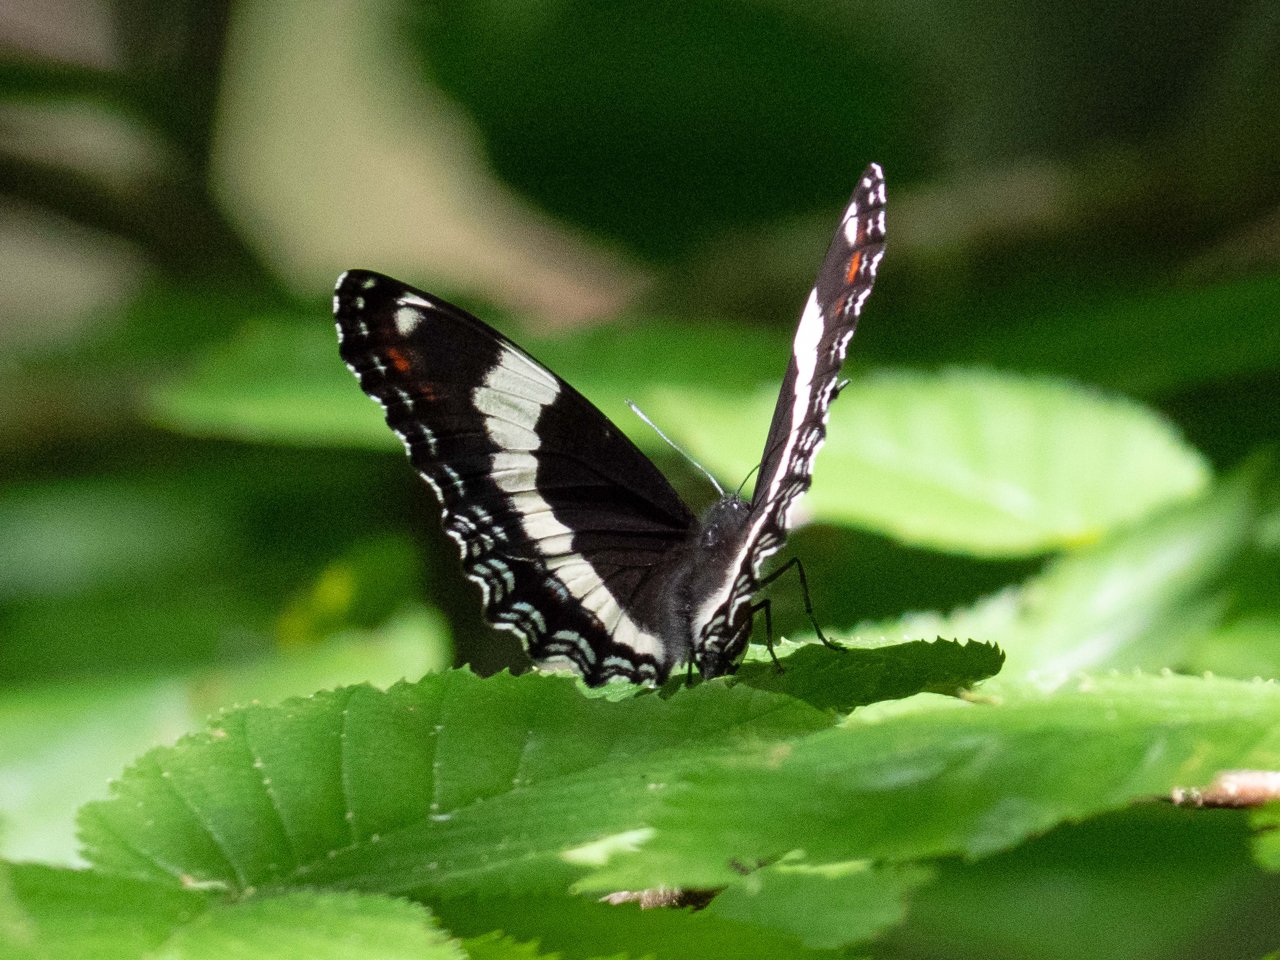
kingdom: Animalia
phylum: Arthropoda
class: Insecta
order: Lepidoptera
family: Nymphalidae
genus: Limenitis
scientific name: Limenitis arthemis
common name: Red-spotted Admiral
